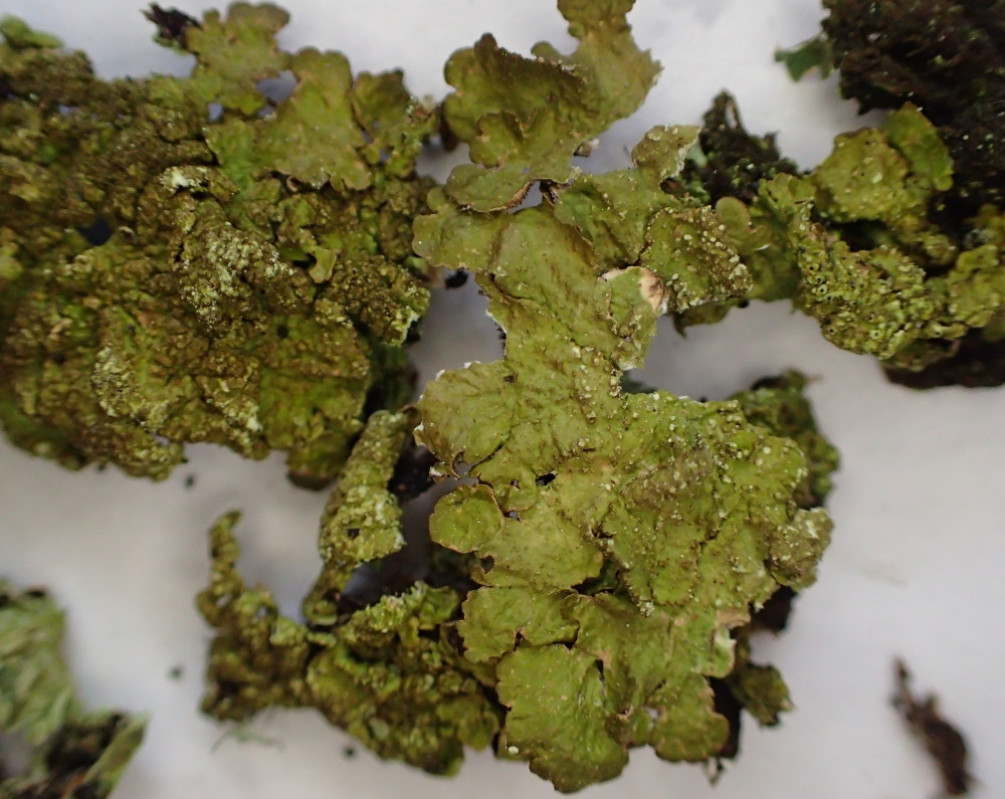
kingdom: Fungi
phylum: Ascomycota
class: Lecanoromycetes
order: Lecanorales
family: Parmeliaceae
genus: Melanelixia
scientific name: Melanelixia subaurifera
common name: guldpudret skållav
